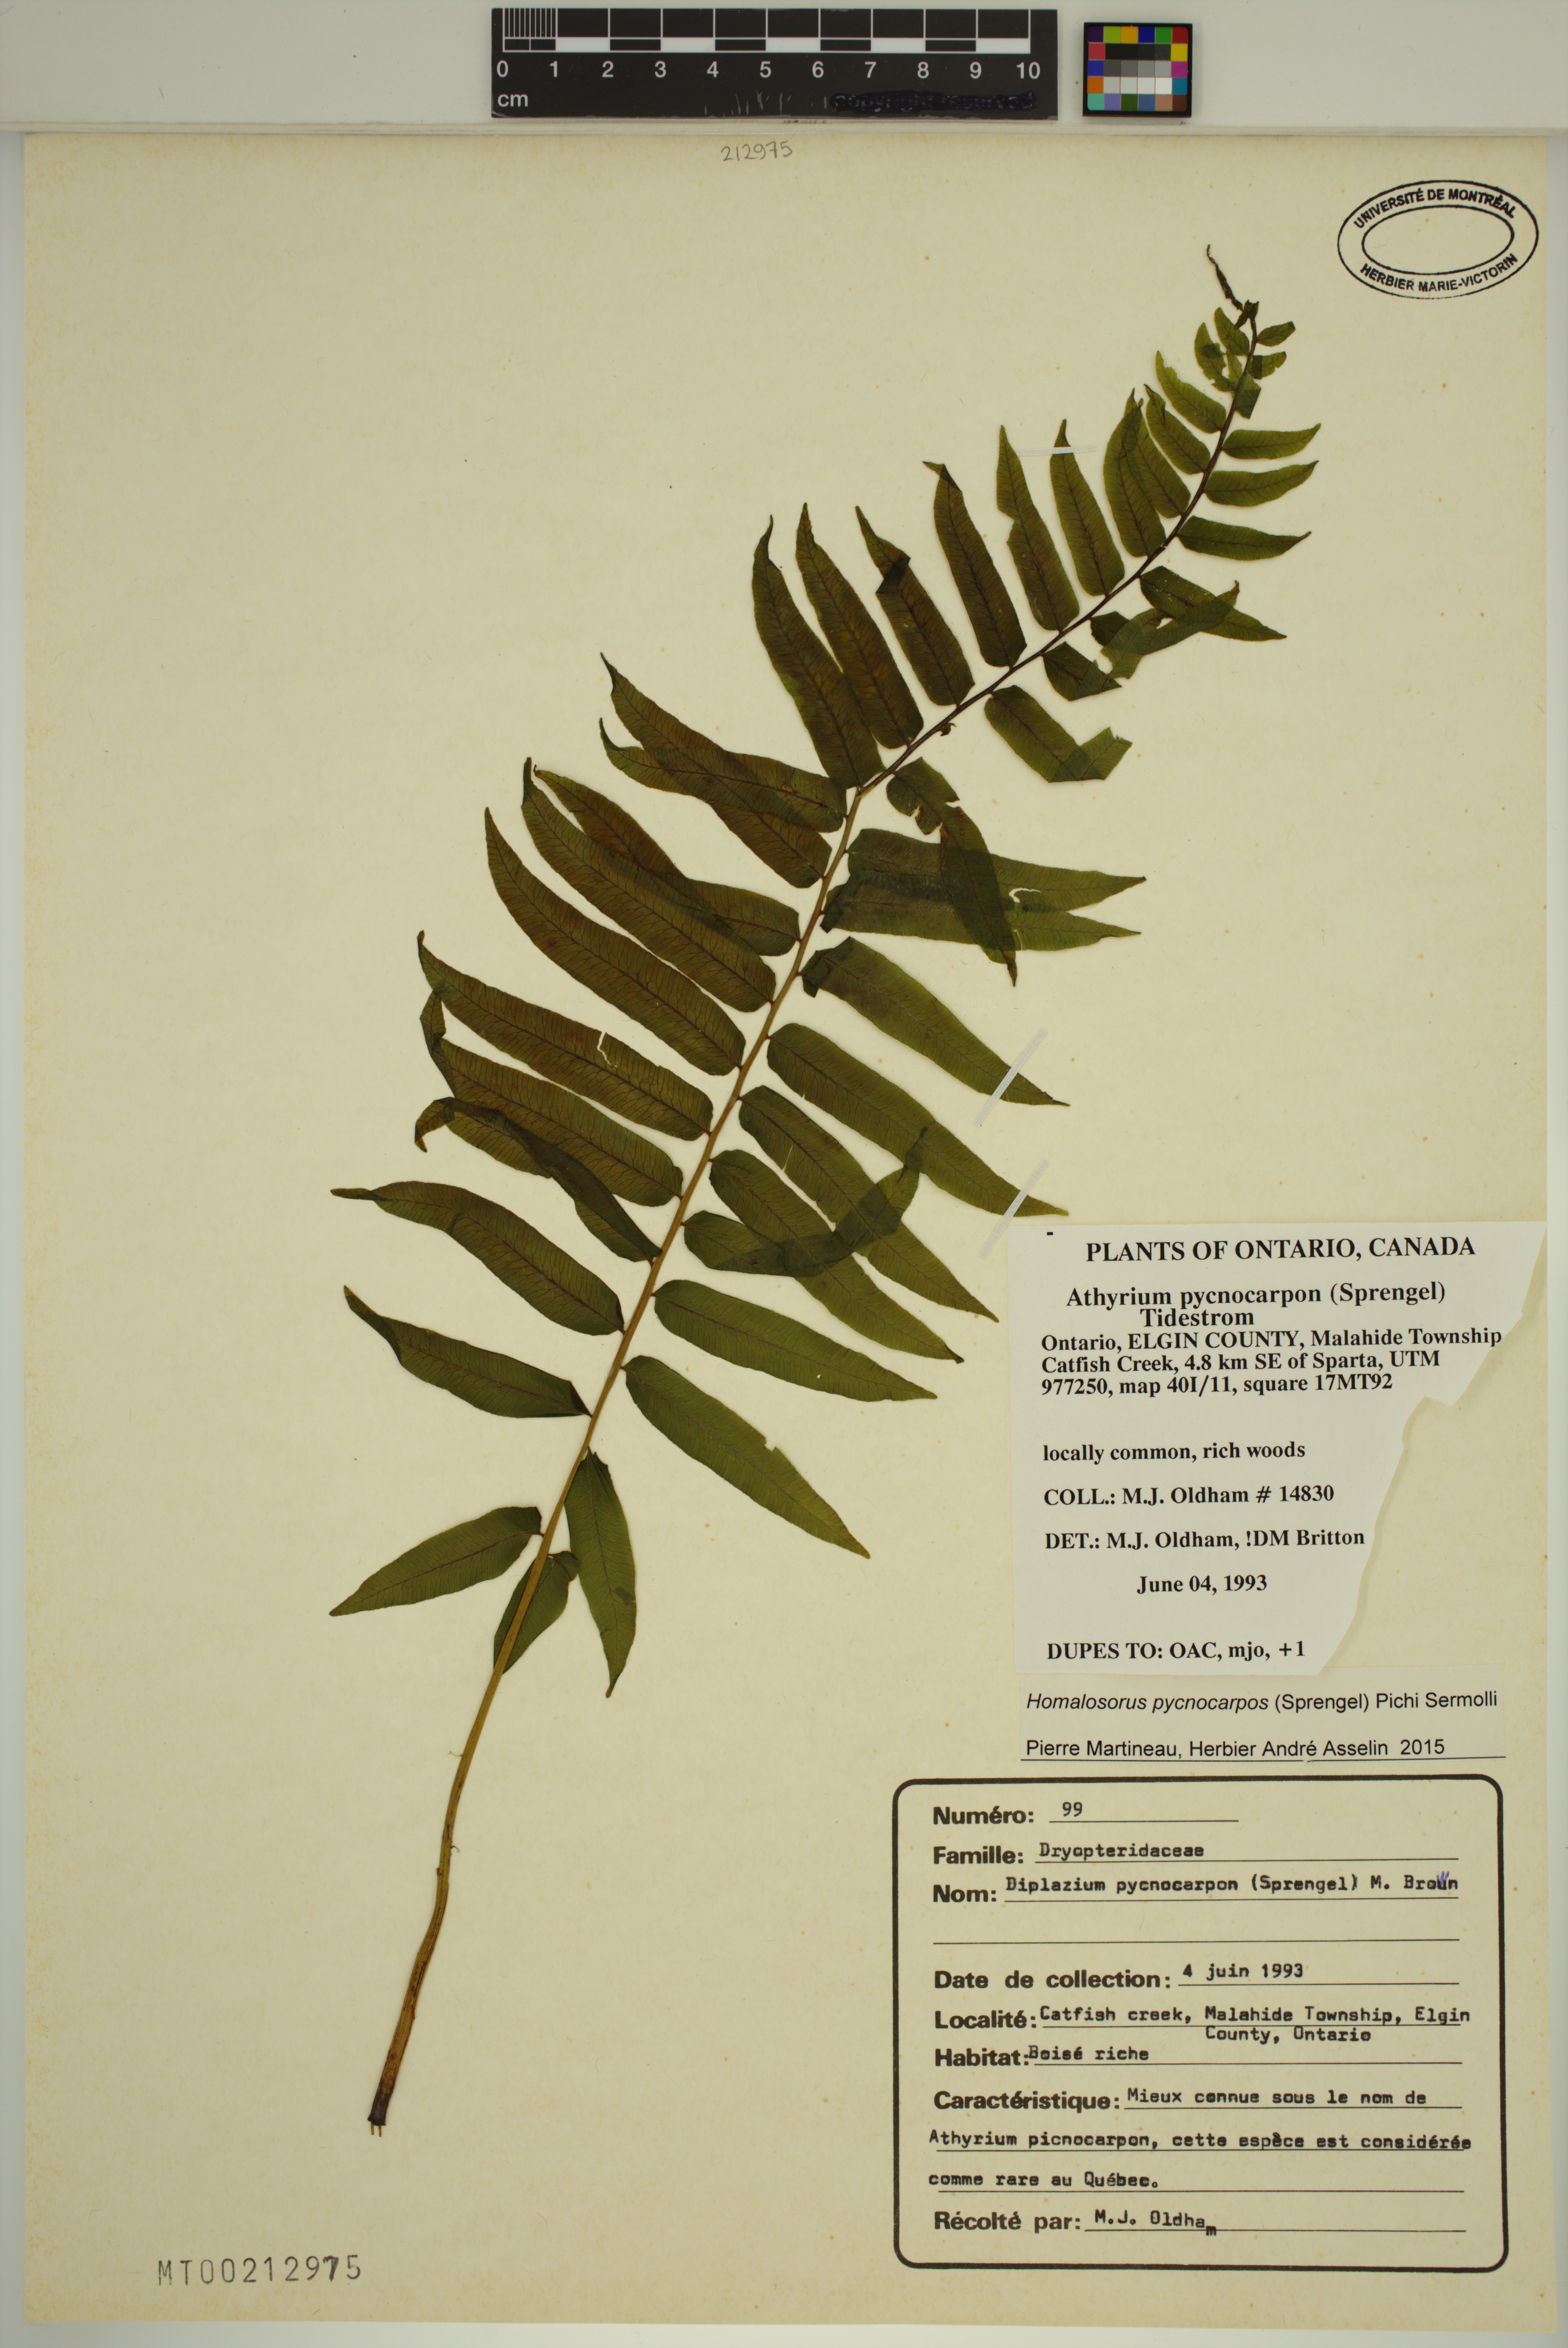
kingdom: Plantae
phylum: Tracheophyta
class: Polypodiopsida
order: Polypodiales
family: Diplaziopsidaceae
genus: Homalosorus
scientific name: Homalosorus pycnocarpos
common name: Glade fern
